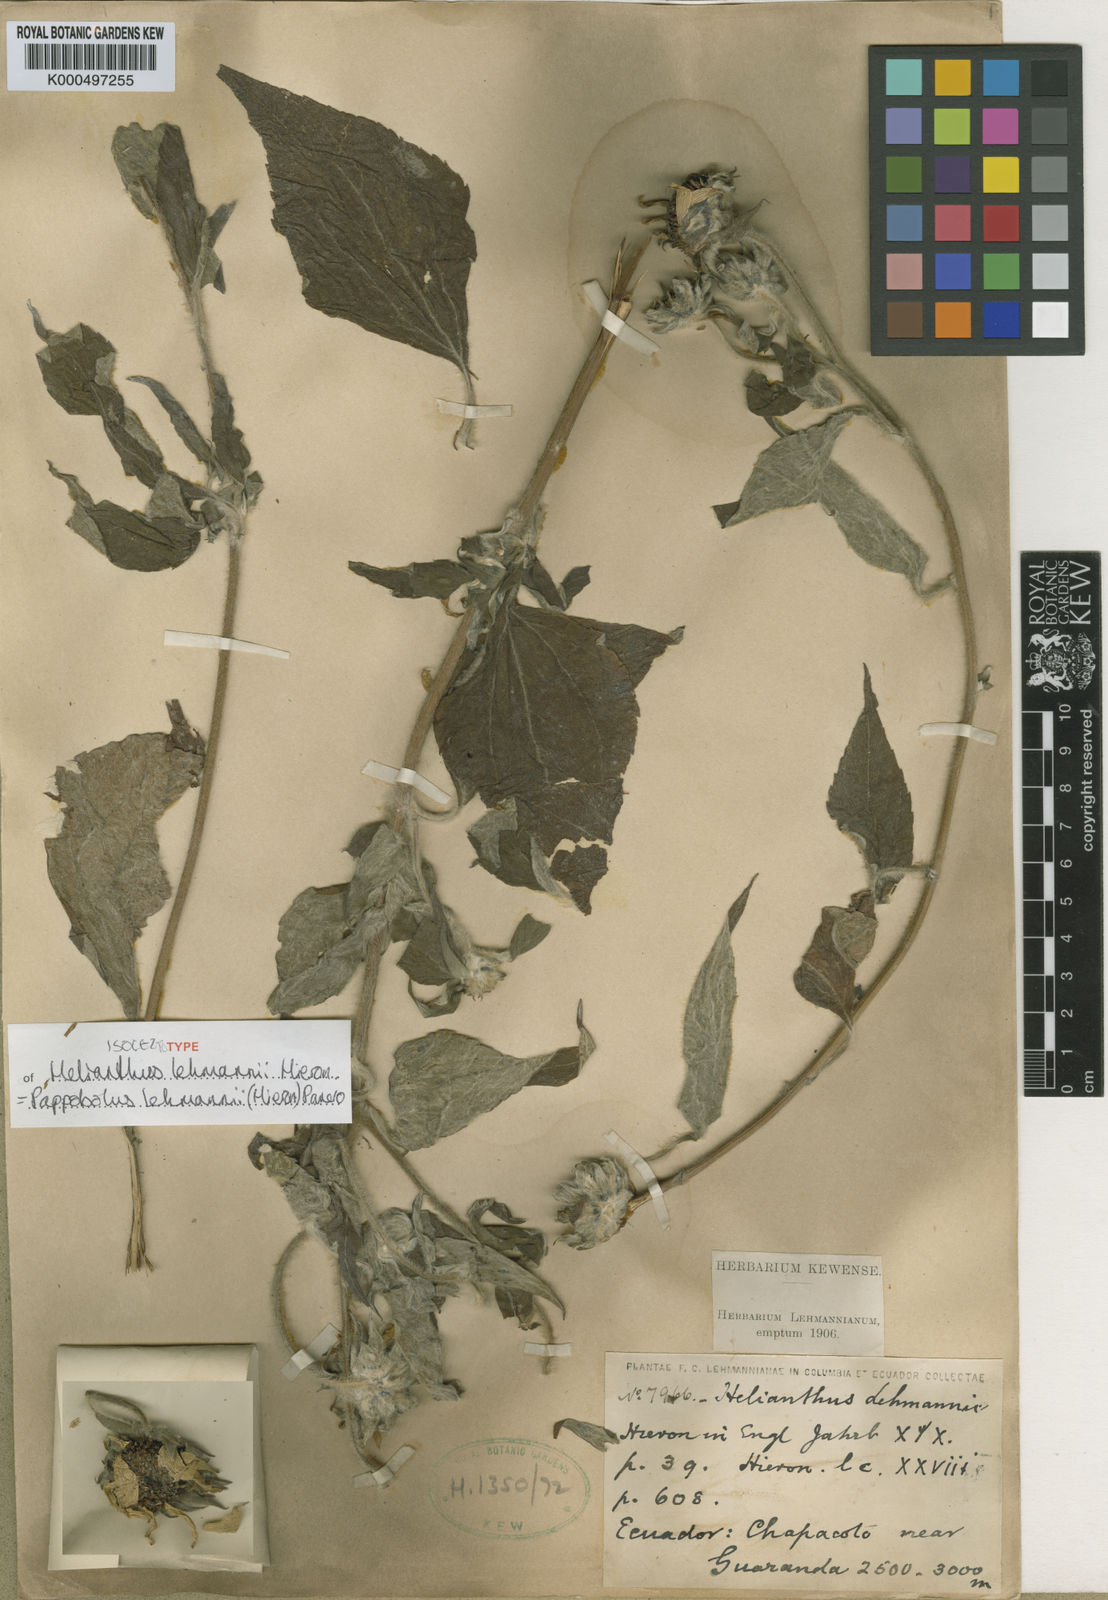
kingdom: Plantae
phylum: Tracheophyta
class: Magnoliopsida
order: Asterales
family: Asteraceae
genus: Pappobolus
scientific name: Pappobolus lehmannii
